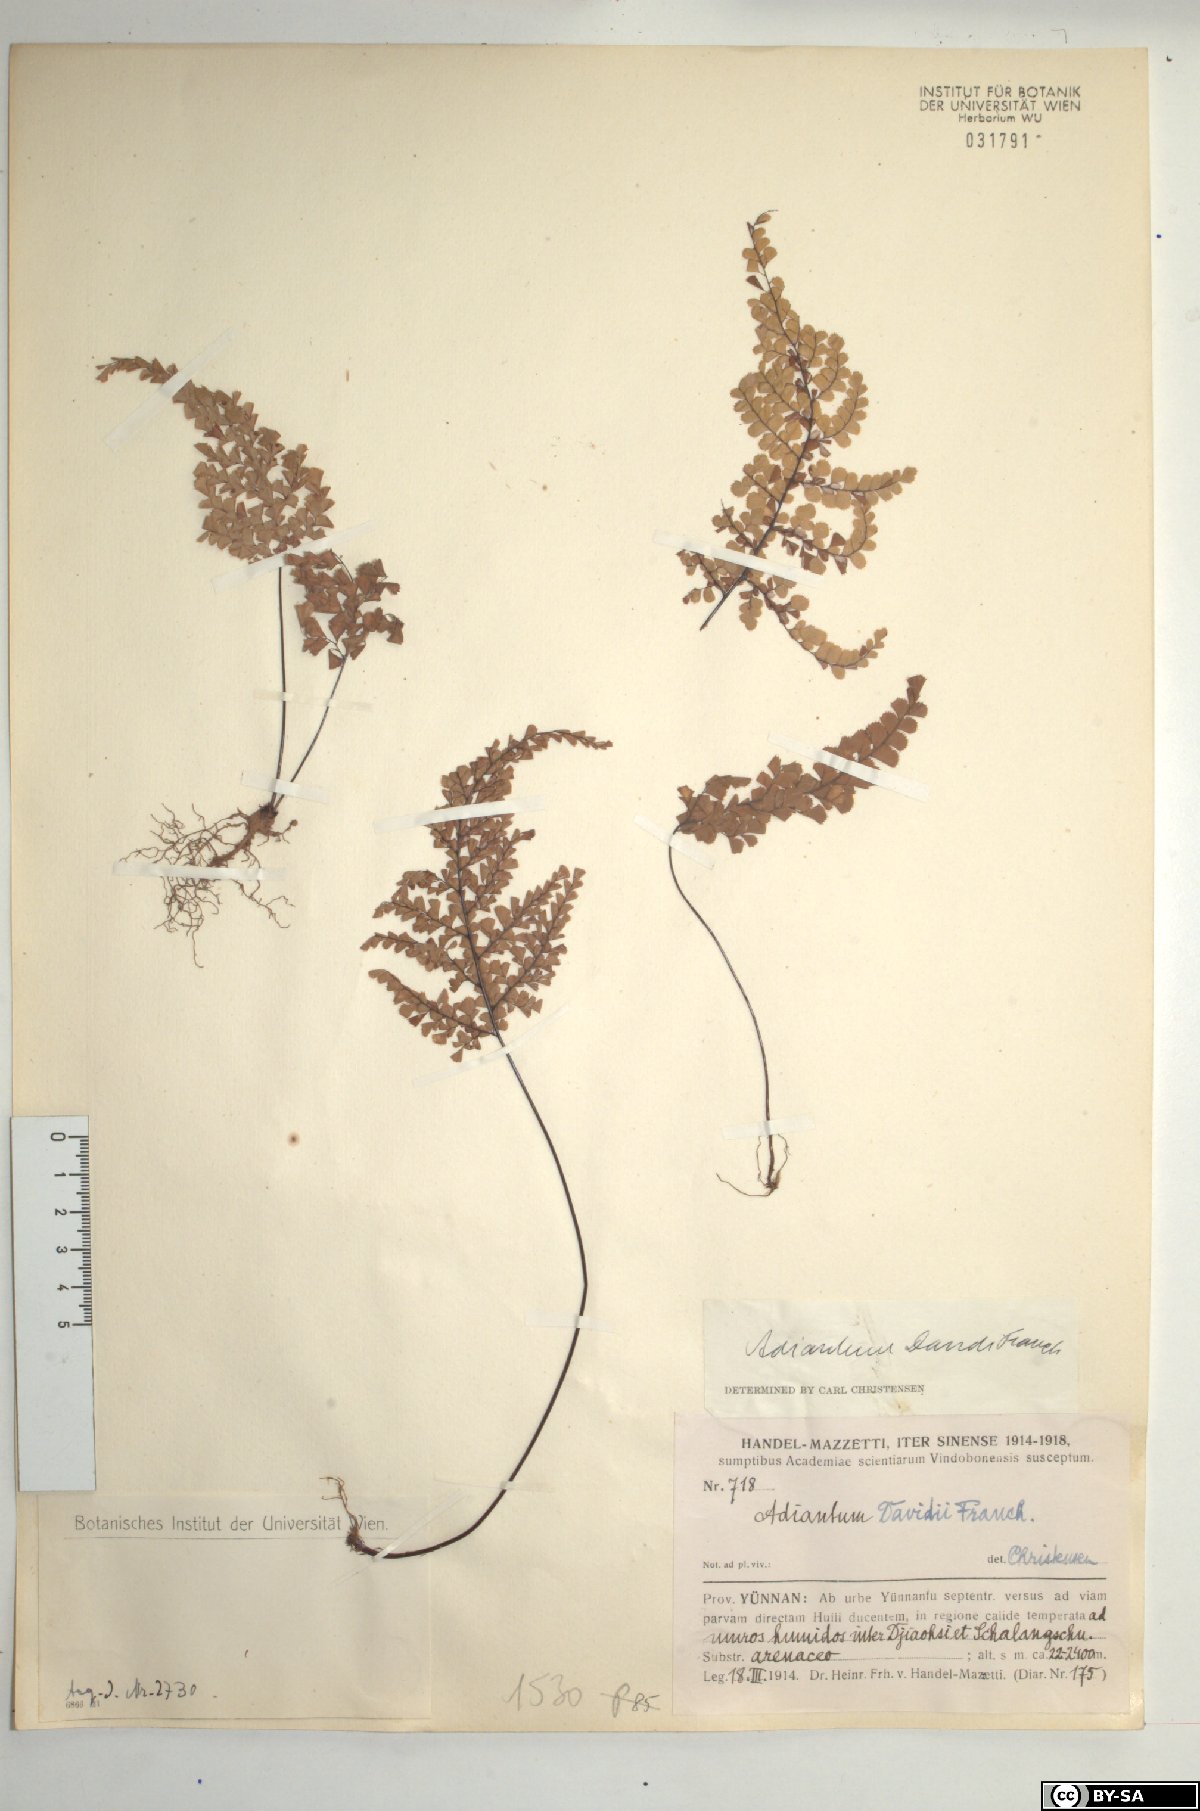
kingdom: Plantae
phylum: Tracheophyta
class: Polypodiopsida
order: Polypodiales
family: Pteridaceae
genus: Adiantum
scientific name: Adiantum davidii
